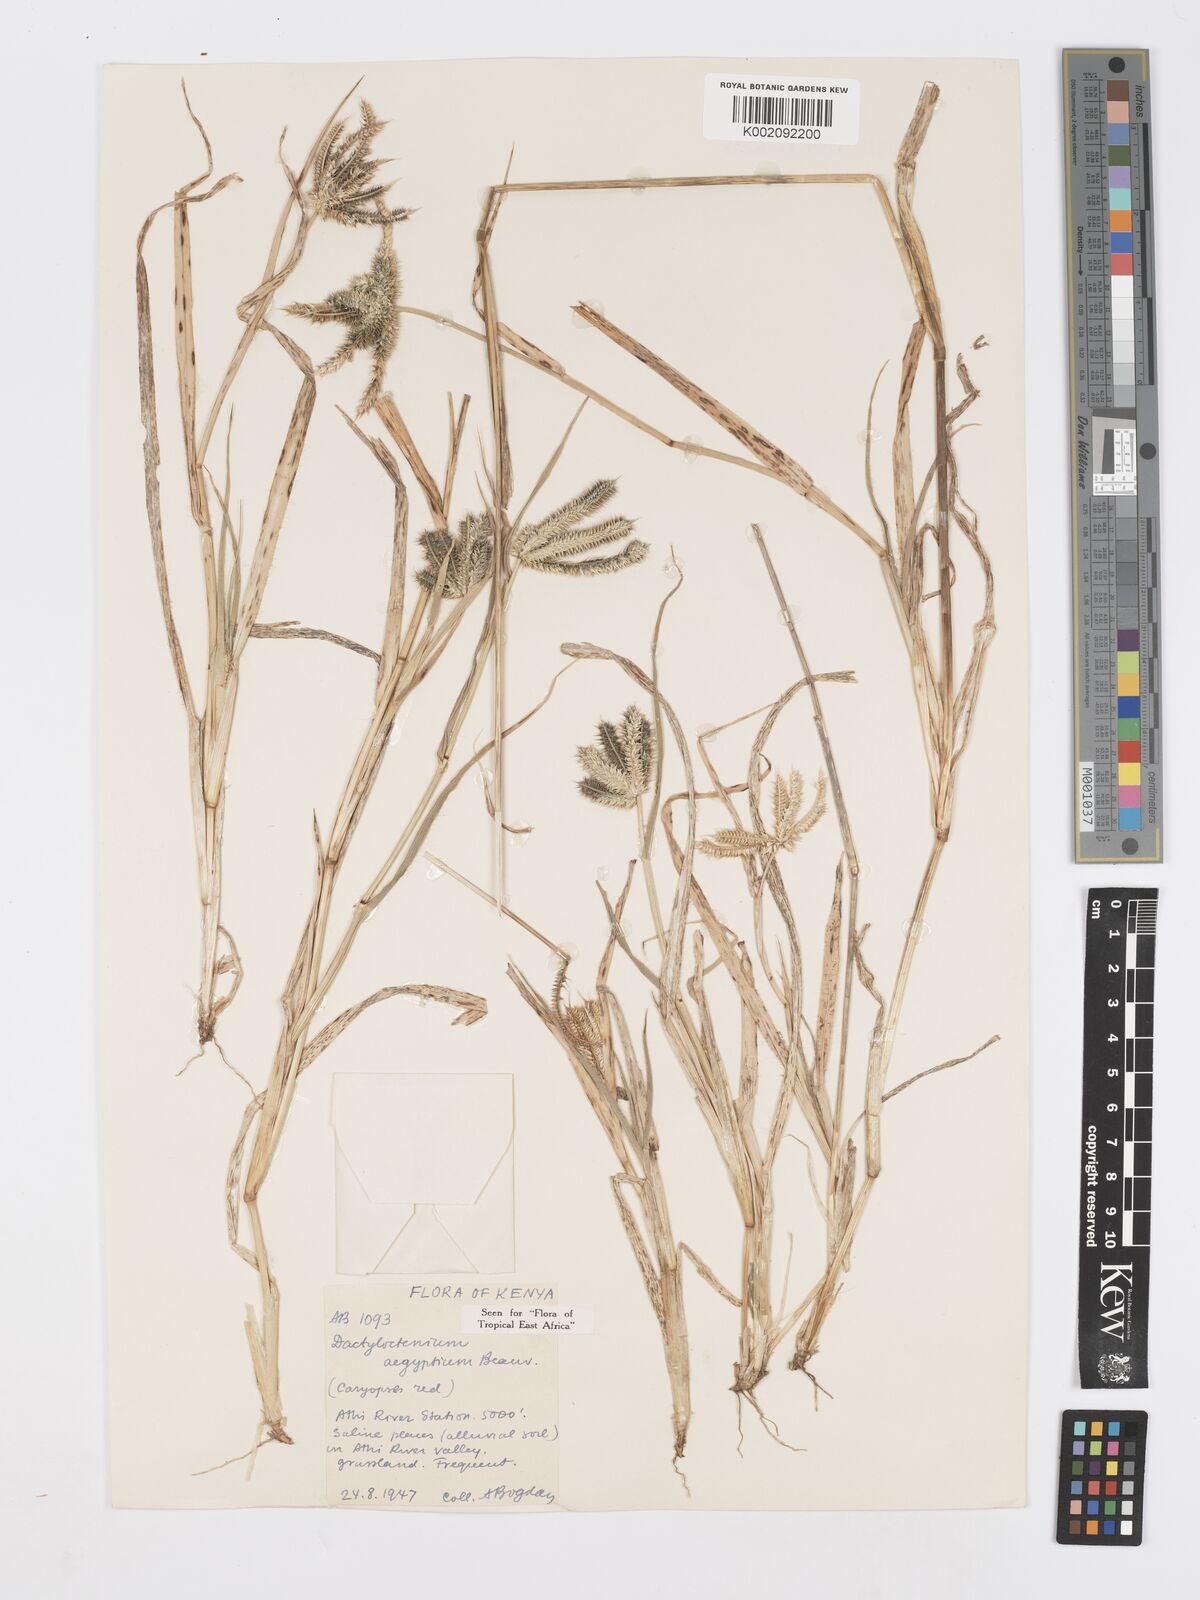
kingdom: Plantae
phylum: Tracheophyta
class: Liliopsida
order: Poales
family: Poaceae
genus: Dactyloctenium
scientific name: Dactyloctenium aegyptium
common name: Egyptian grass
